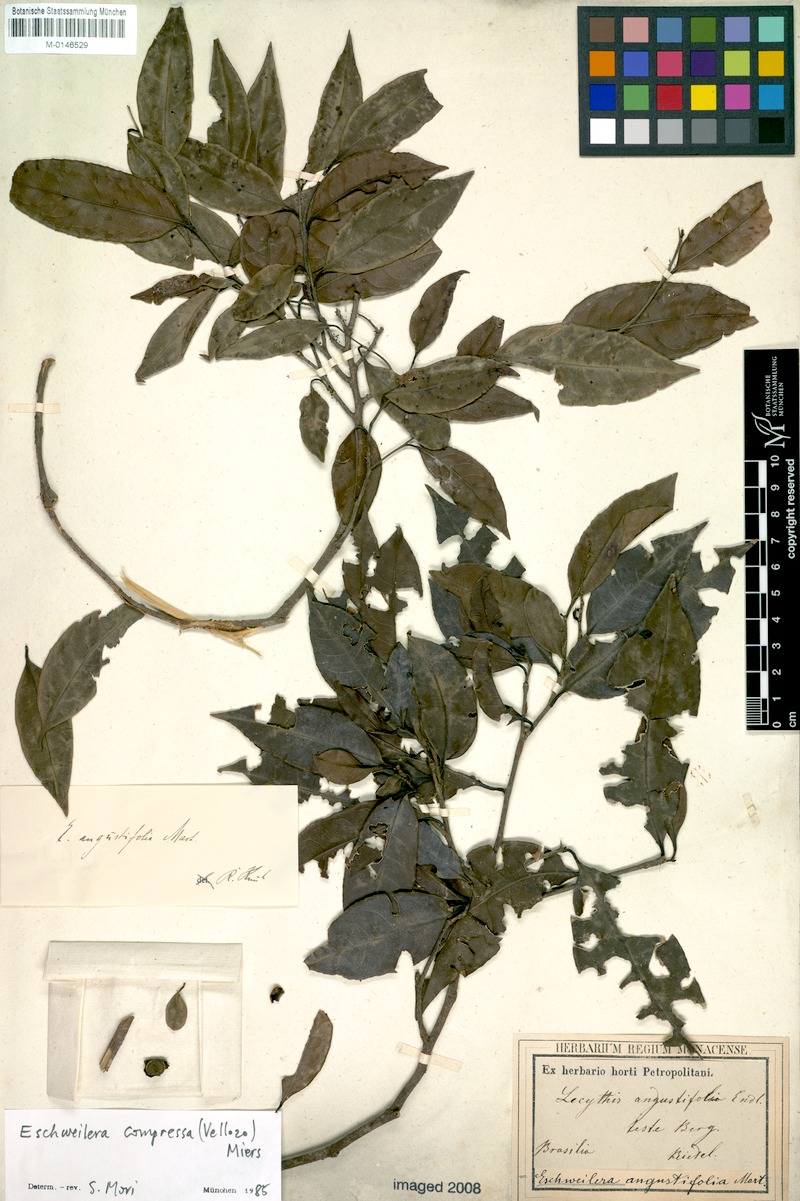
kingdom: Plantae
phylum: Tracheophyta
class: Magnoliopsida
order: Ericales
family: Lecythidaceae
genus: Eschweilera
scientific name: Eschweilera compressa
